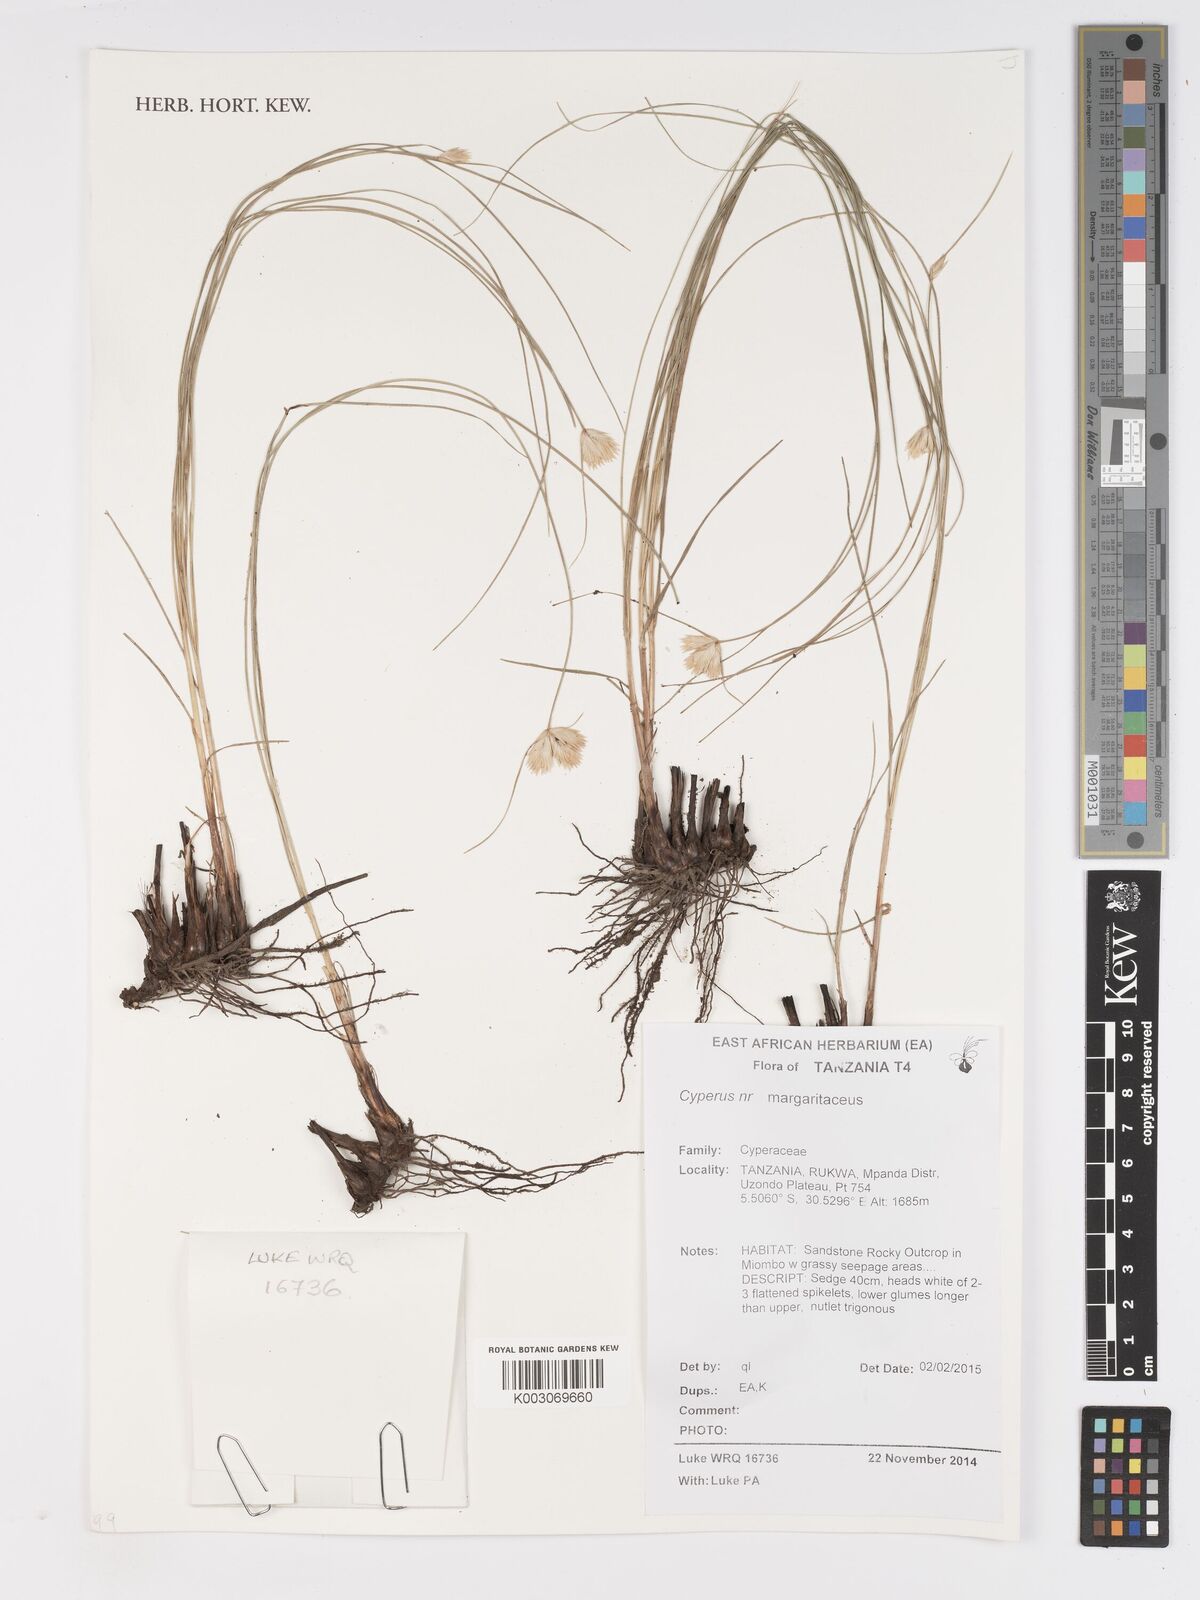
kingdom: Plantae
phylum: Tracheophyta
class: Liliopsida
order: Poales
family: Cyperaceae
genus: Cyperus
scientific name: Cyperus margaritaceus
